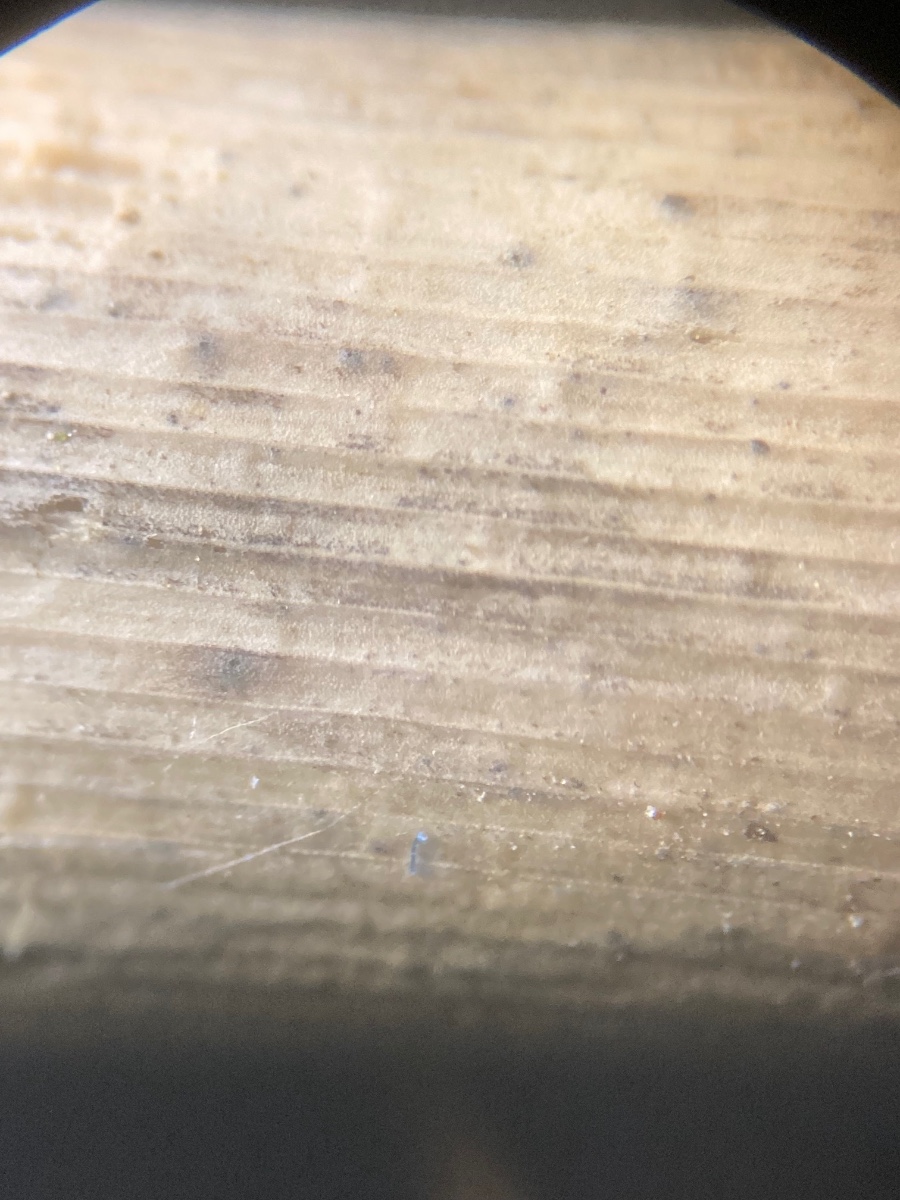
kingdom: Fungi
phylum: Ascomycota
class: Dothideomycetes
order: Pleosporales
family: Phaeosphaeriaceae
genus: Stagonospora
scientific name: Stagonospora
